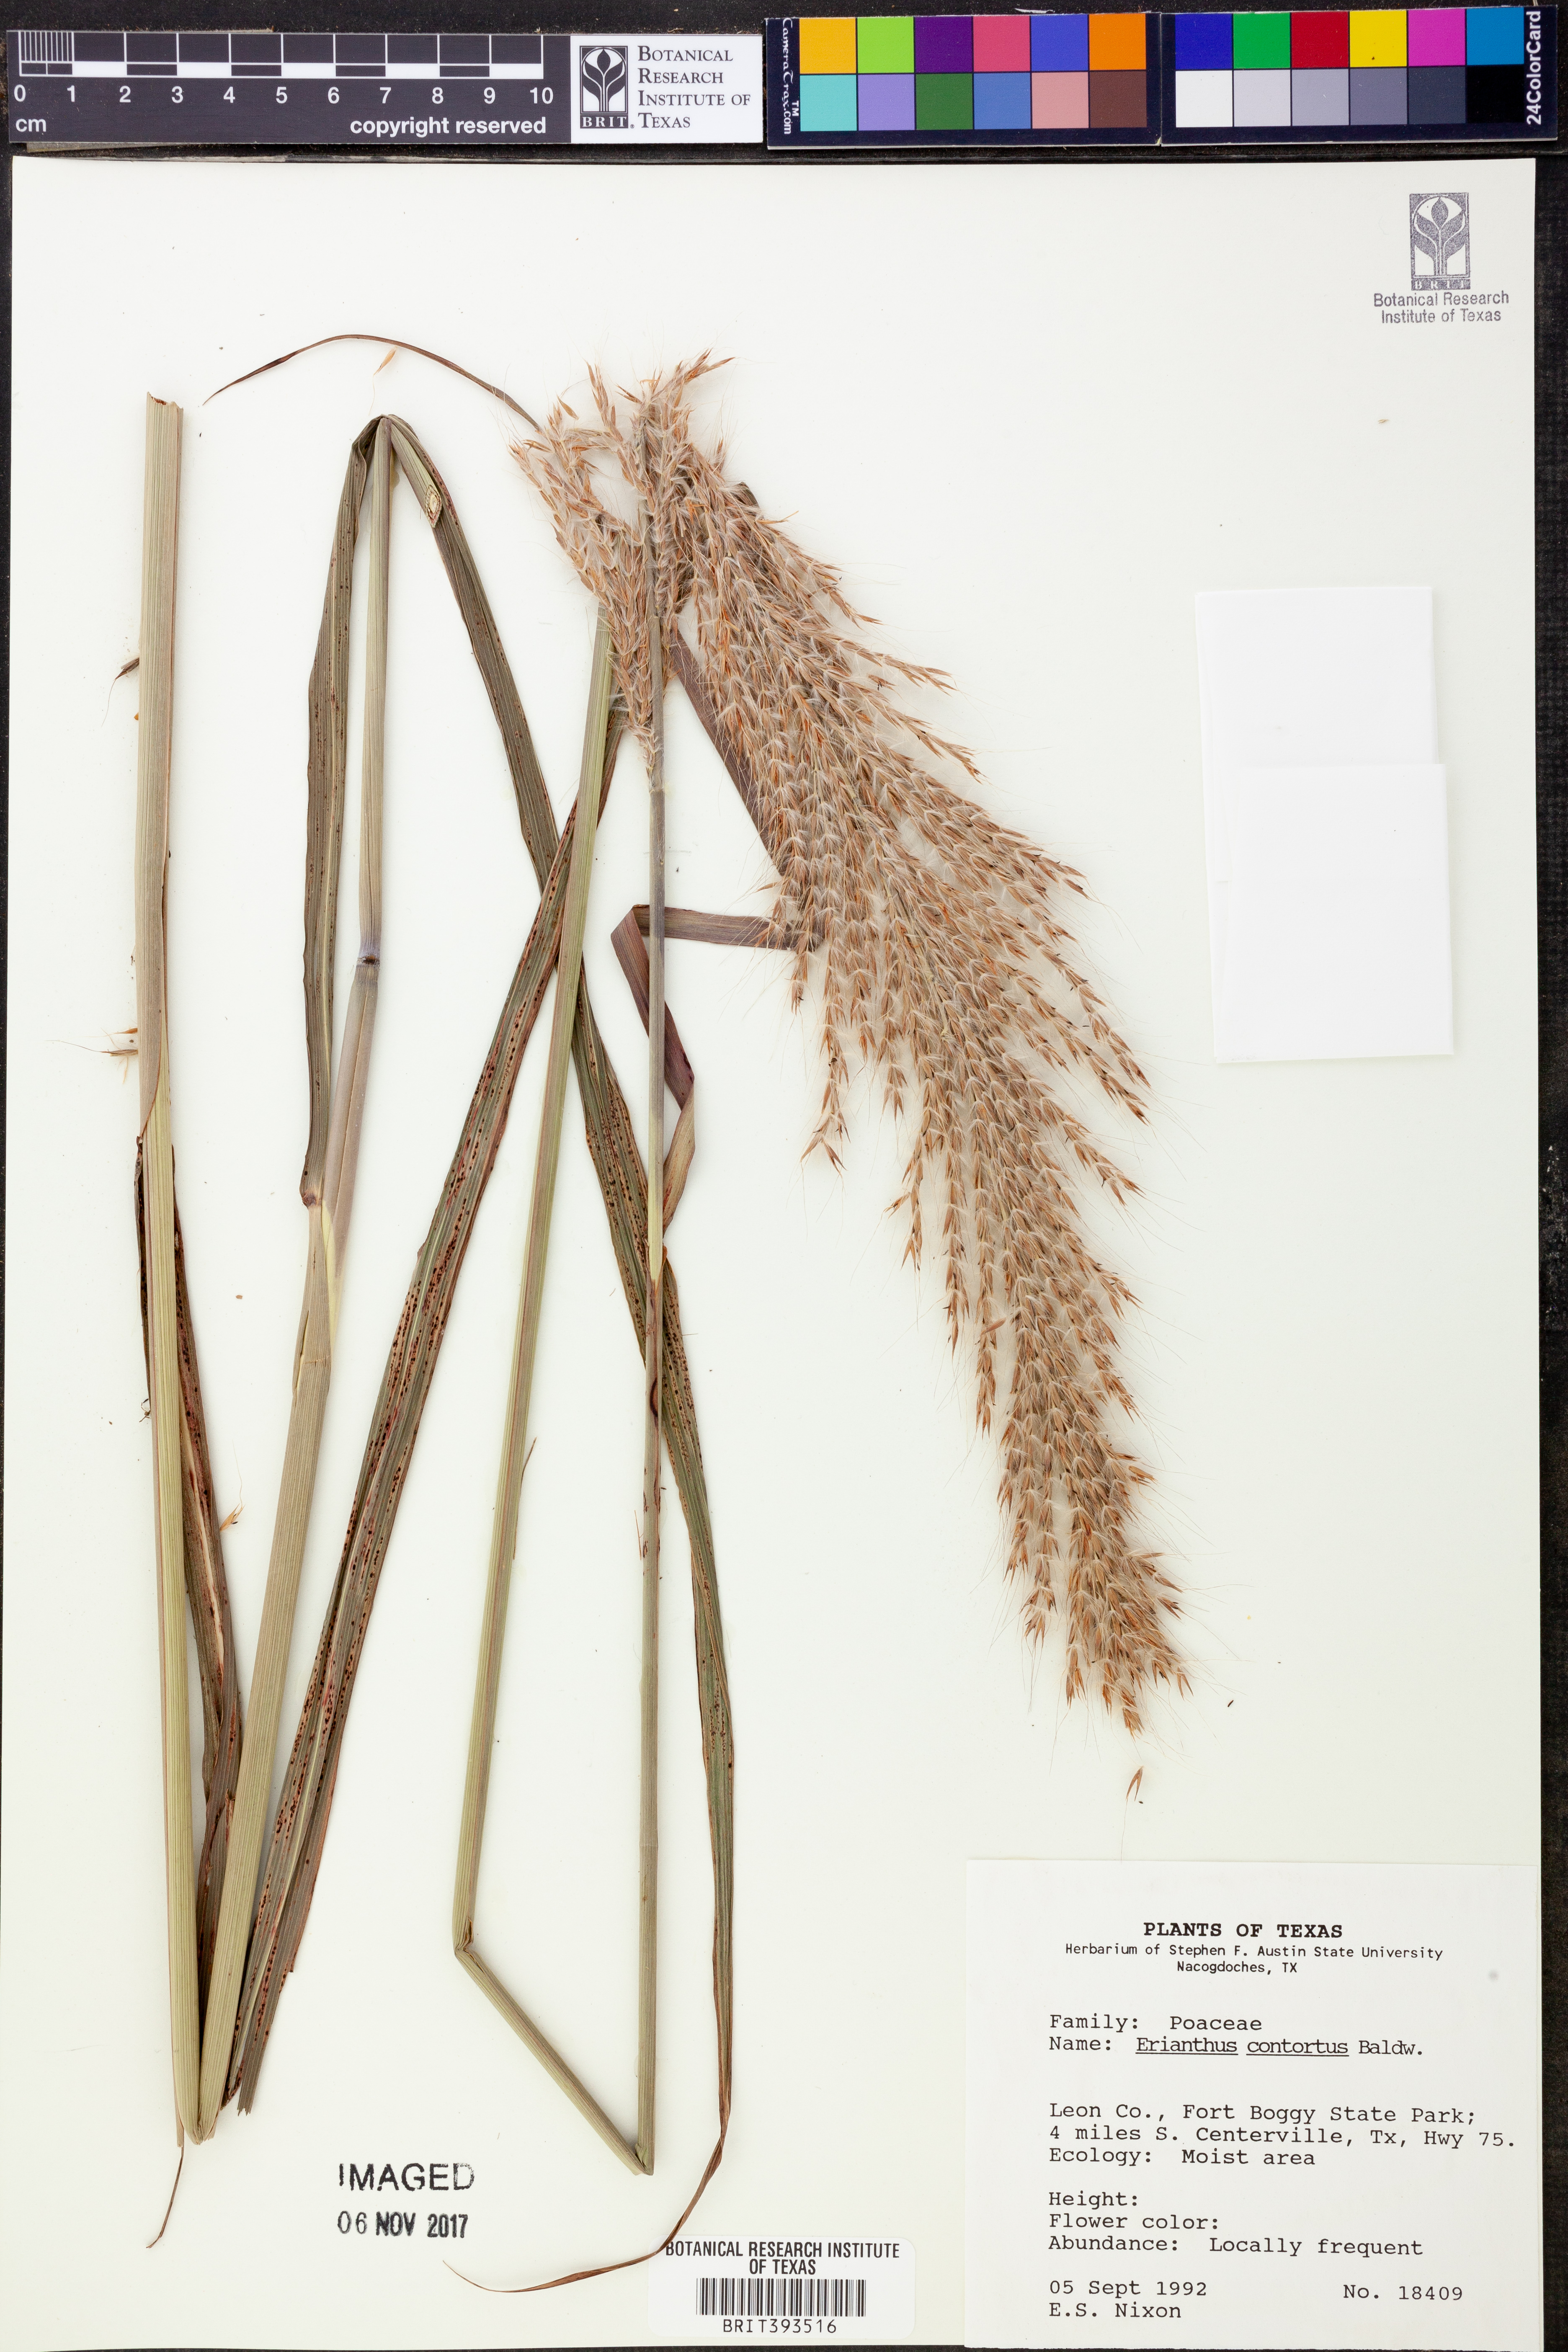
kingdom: Plantae
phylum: Tracheophyta
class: Liliopsida
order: Poales
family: Poaceae
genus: Erianthus
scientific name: Erianthus contortus
